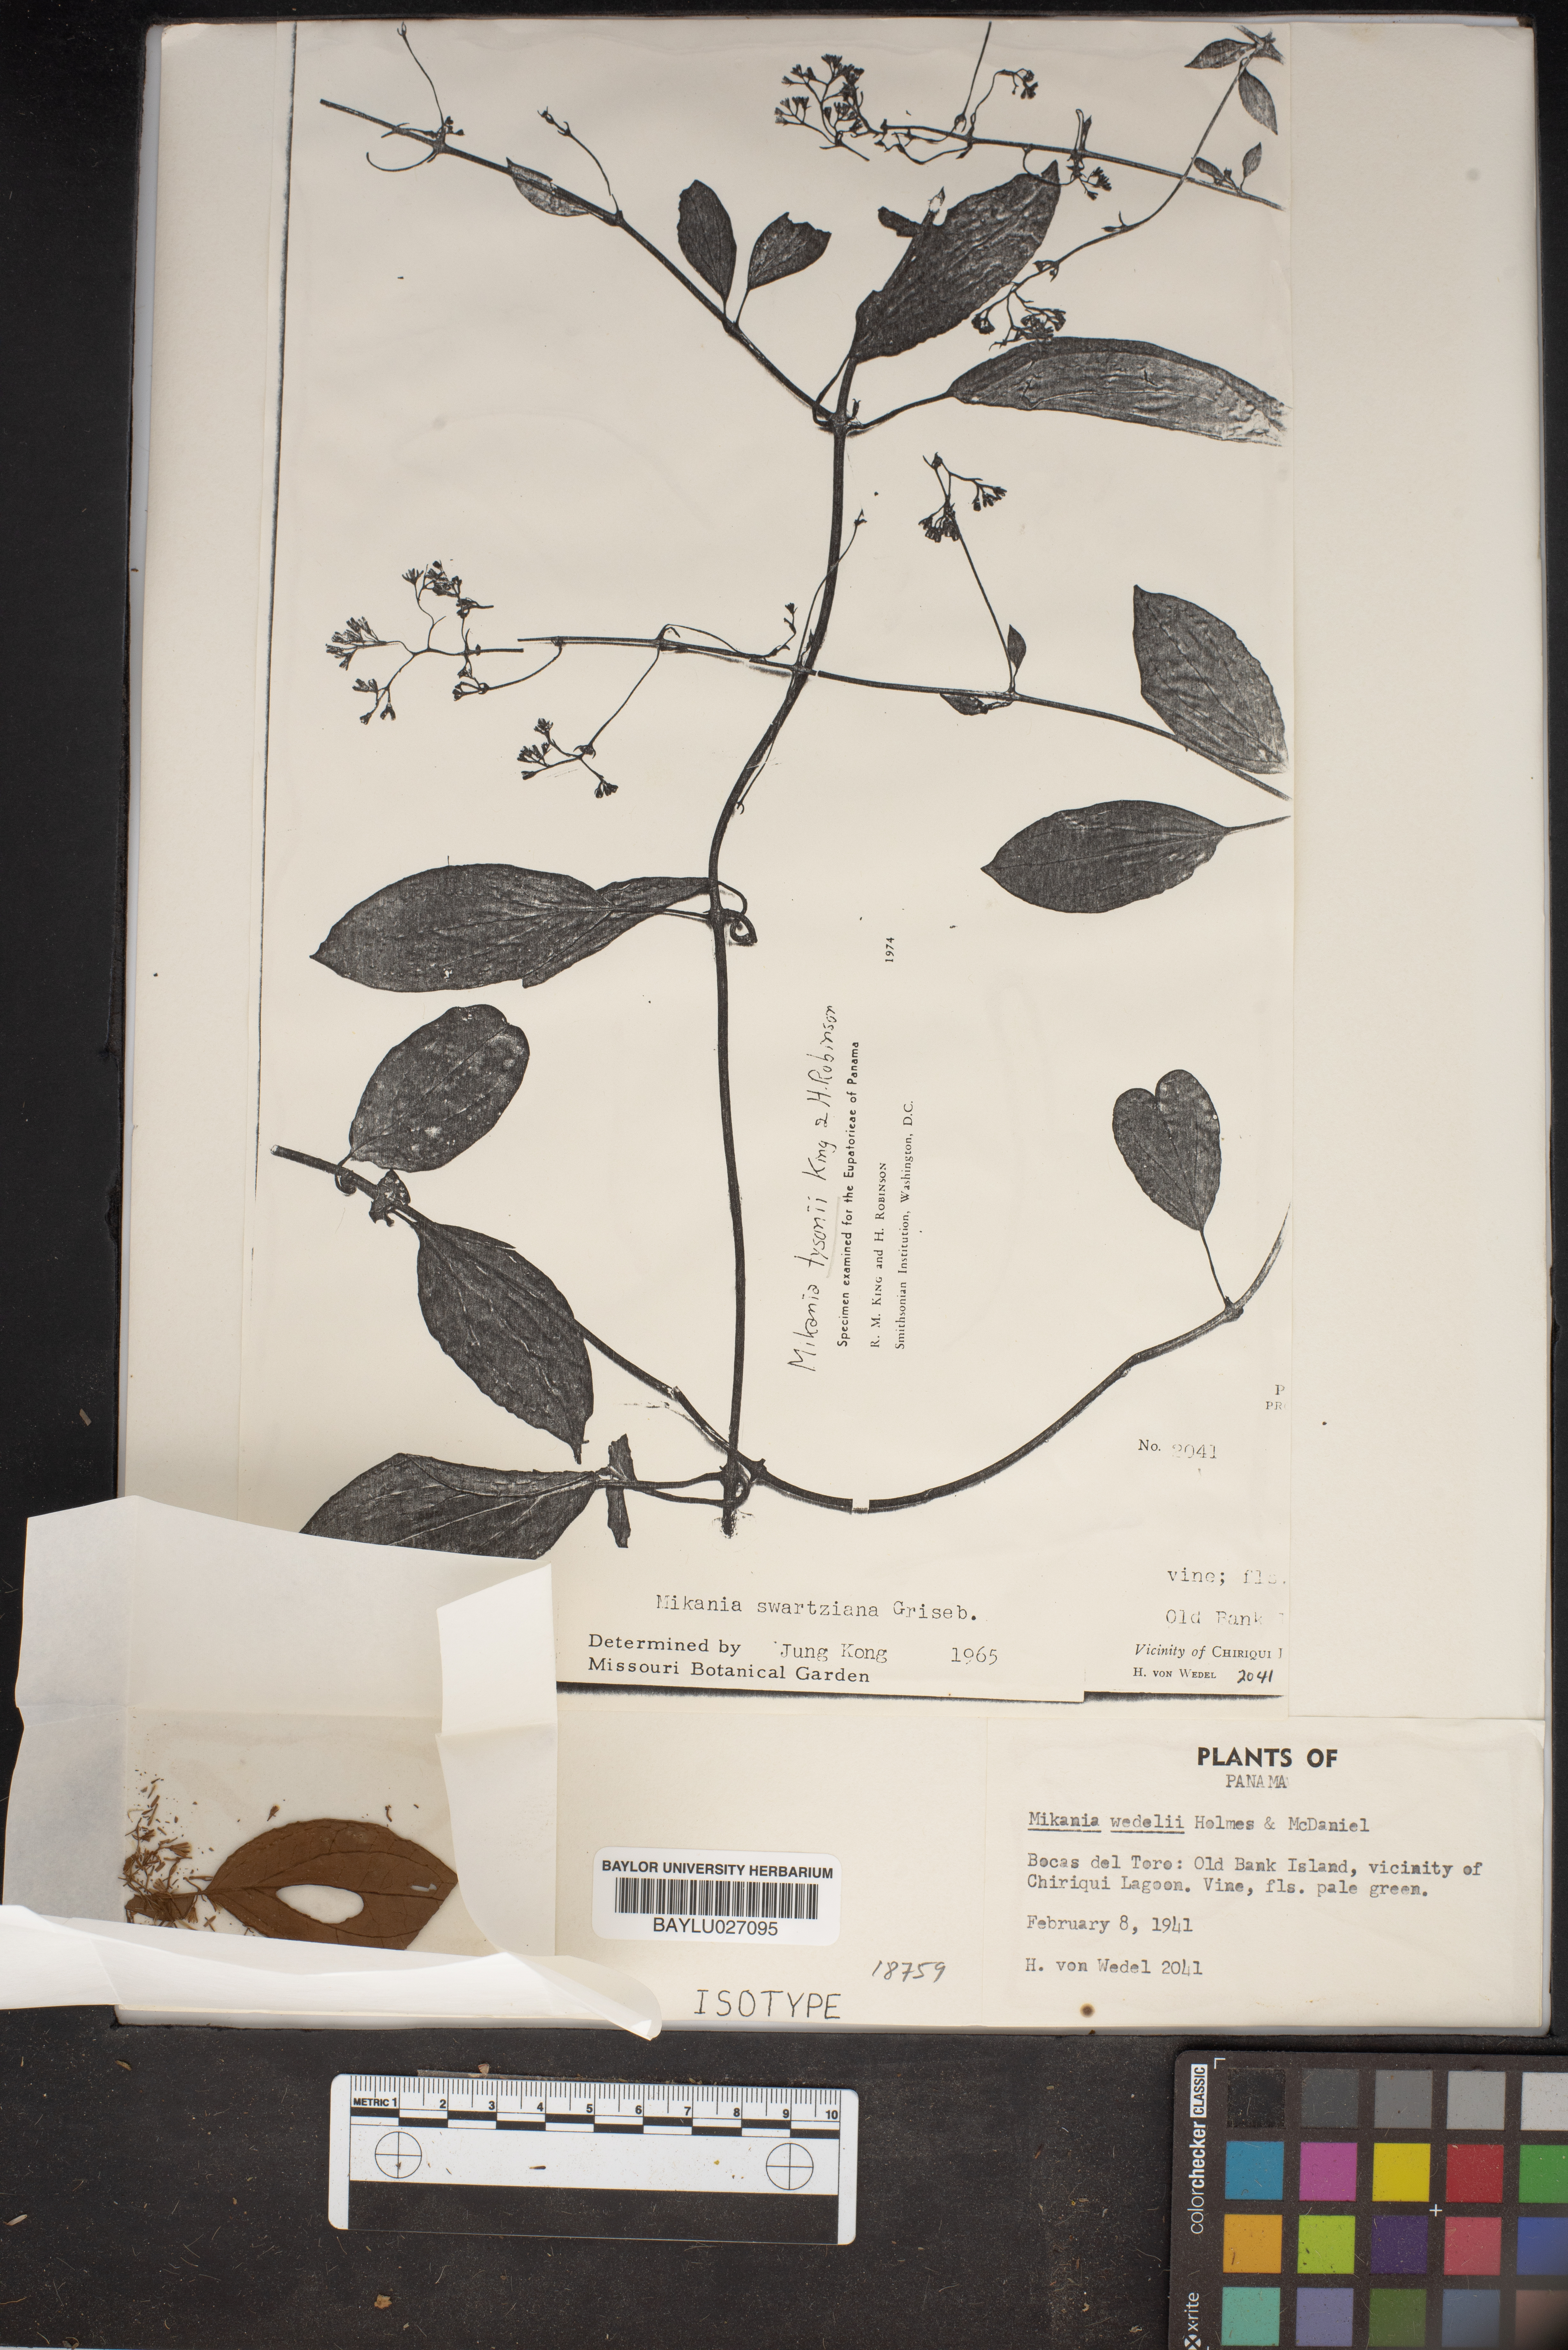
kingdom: Plantae
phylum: Tracheophyta
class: Magnoliopsida
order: Asterales
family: Asteraceae
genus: Mikania
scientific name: Mikania swartziana
